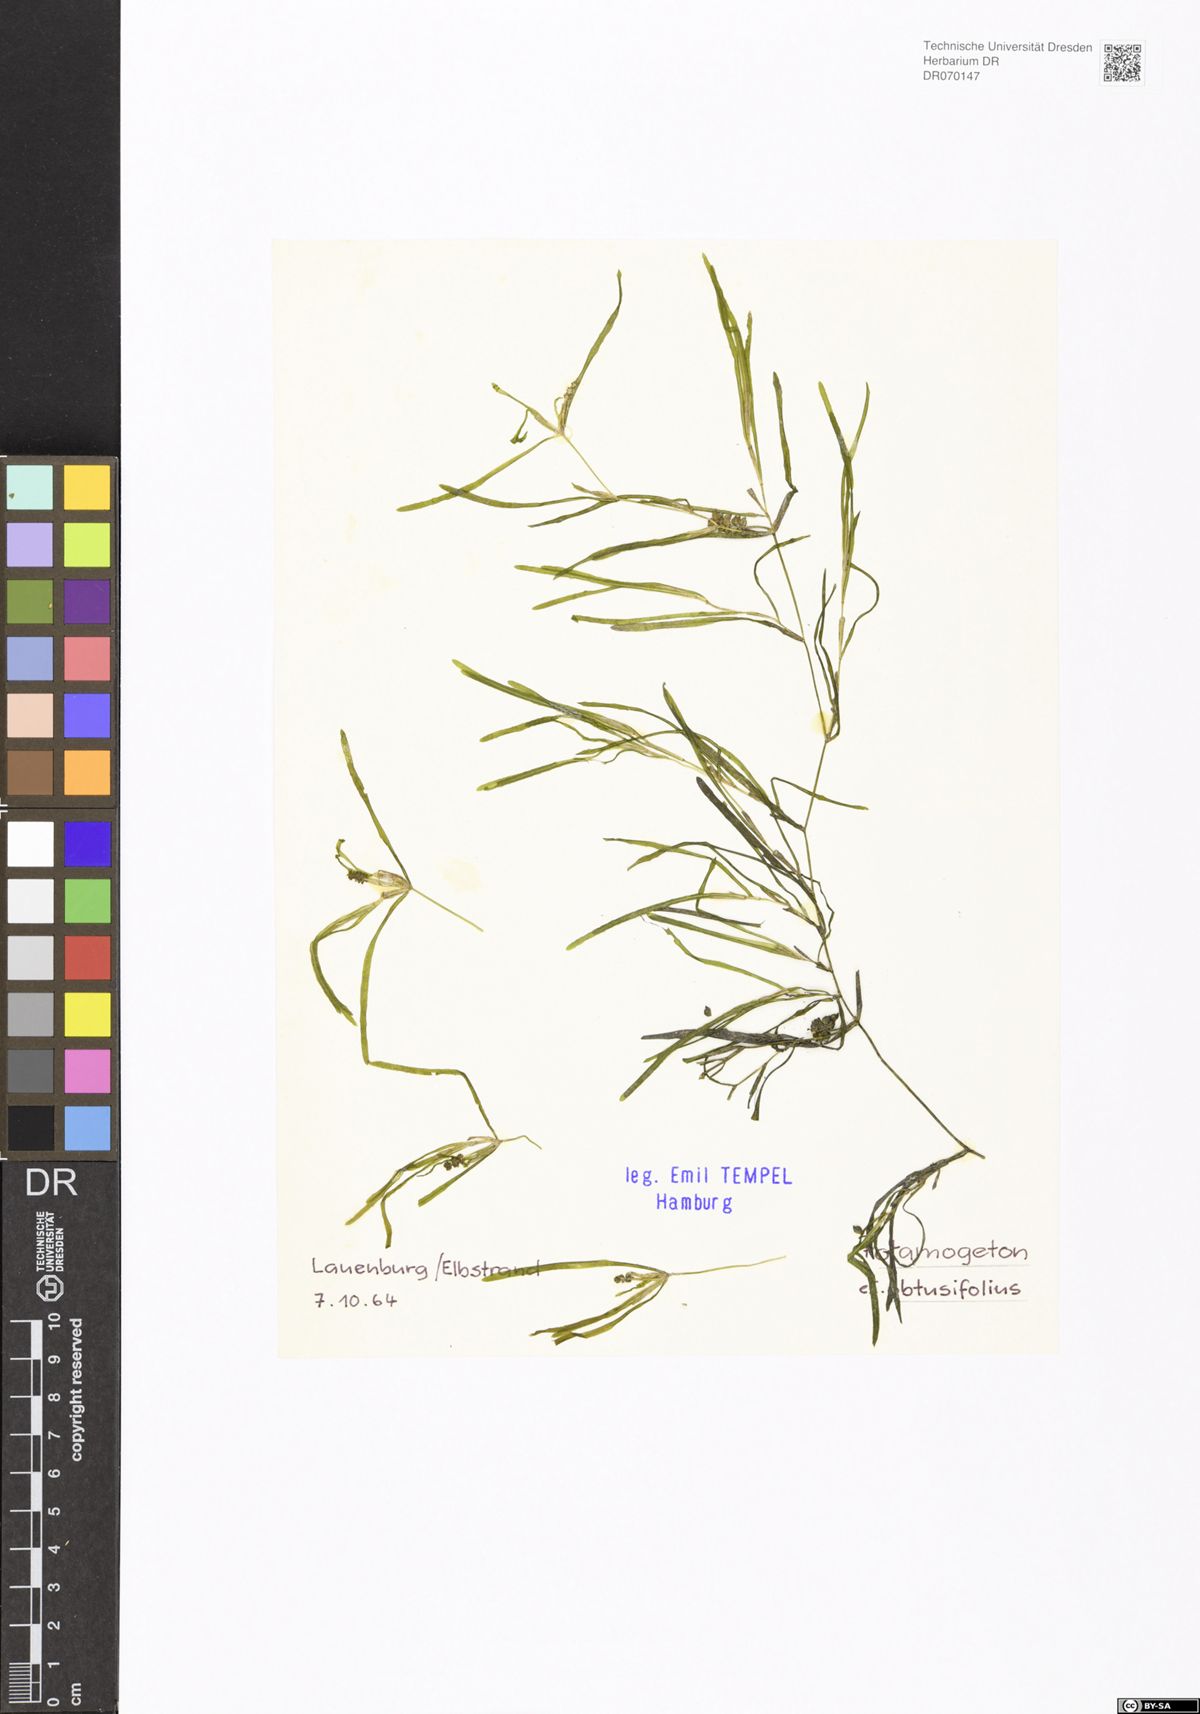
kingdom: Plantae
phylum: Tracheophyta
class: Liliopsida
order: Alismatales
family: Potamogetonaceae
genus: Potamogeton
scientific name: Potamogeton obtusifolius
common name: Blunt-leaved pondweed
